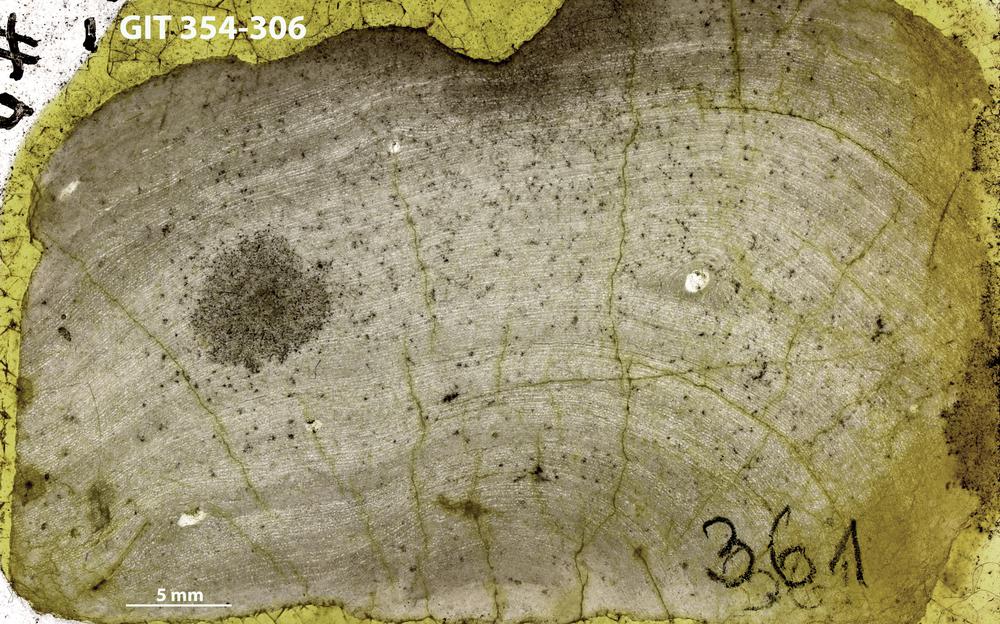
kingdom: Animalia
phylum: Porifera
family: Ecclimadictyidae
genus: Ecclimadictyon
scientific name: Ecclimadictyon Clathrodictyon microvesiculosum
